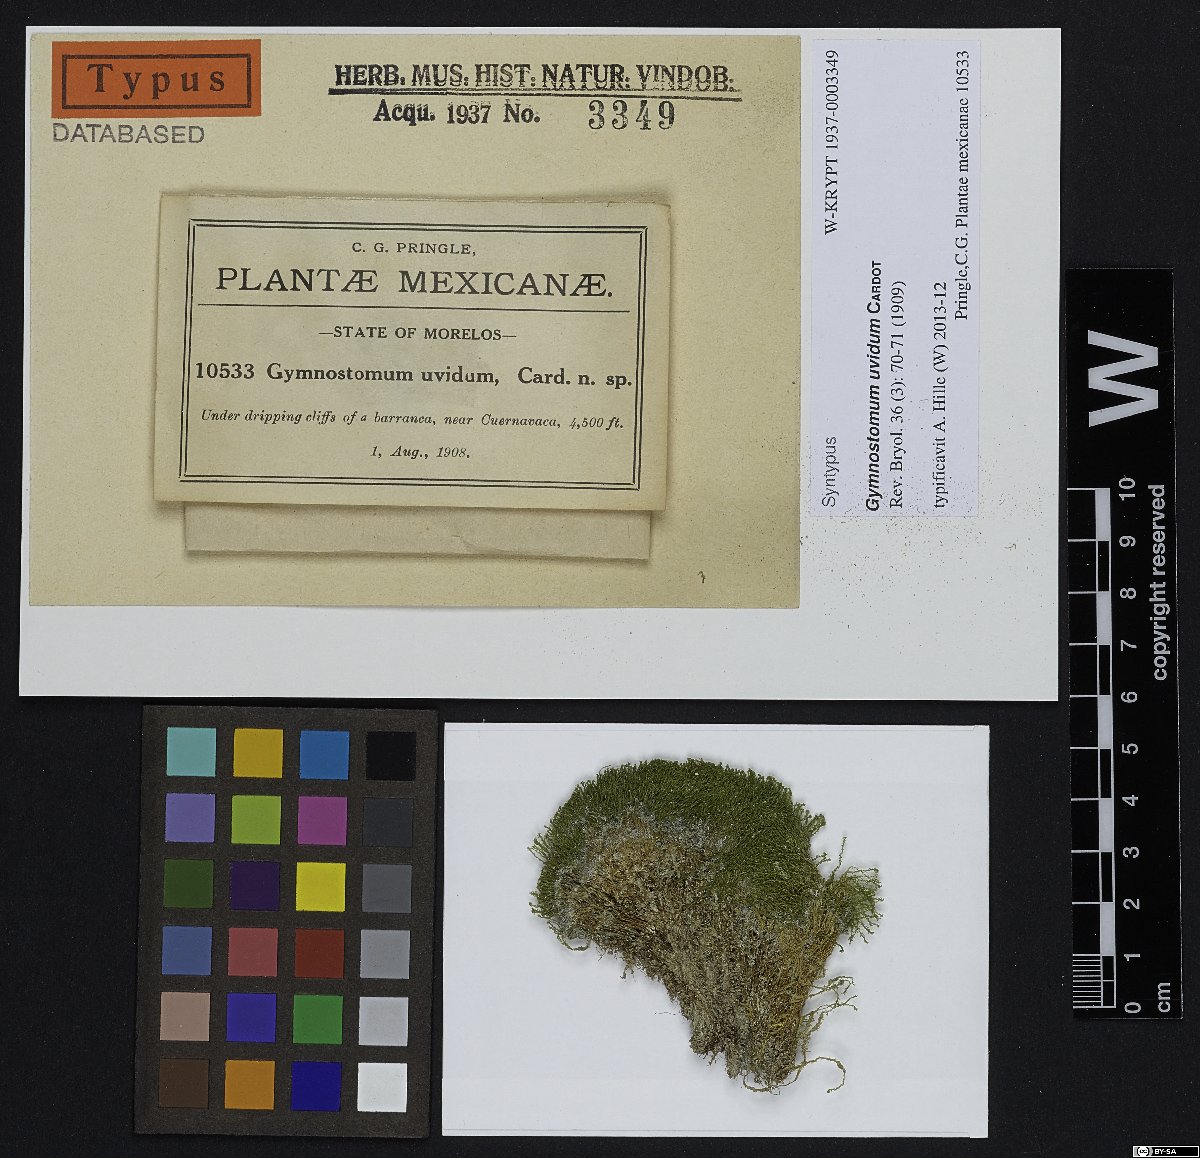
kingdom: Plantae
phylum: Bryophyta
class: Bryopsida
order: Pottiales
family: Pottiaceae
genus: Hymenostylium
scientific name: Hymenostylium recurvirostrum
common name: Hook-beak tufa-moss
